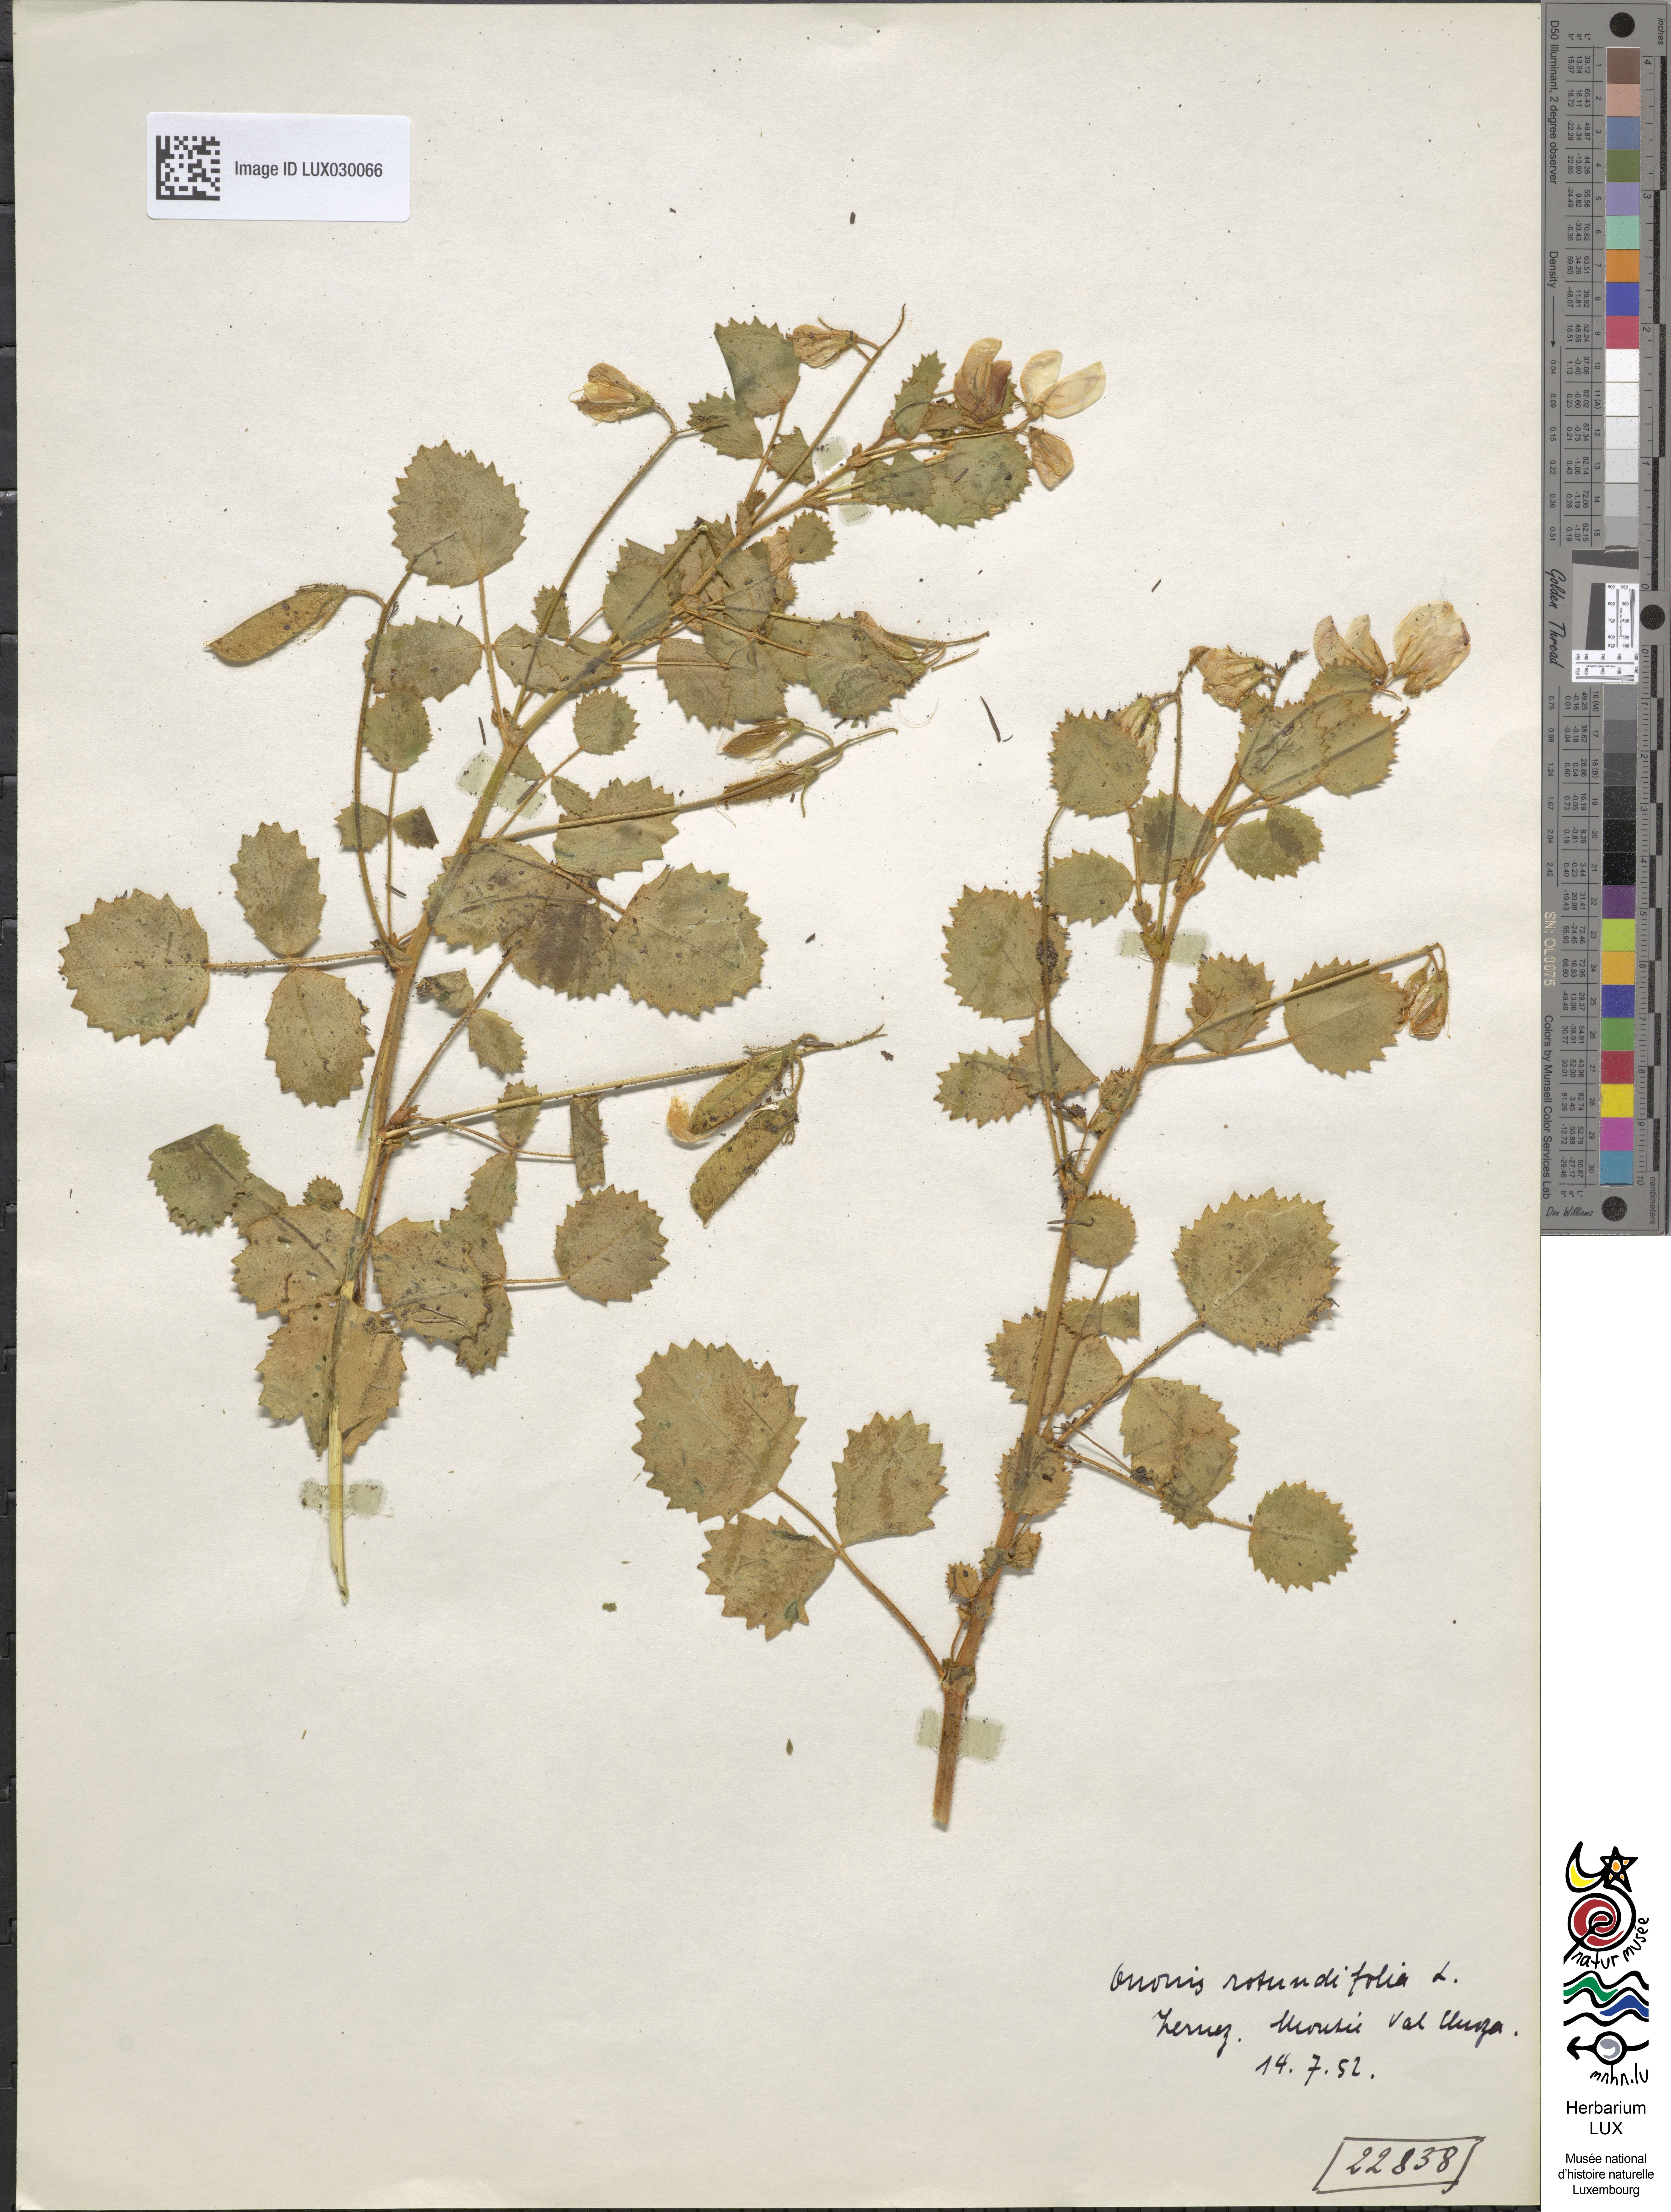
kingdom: Plantae
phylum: Tracheophyta
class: Magnoliopsida
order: Fabales
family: Fabaceae
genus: Ononis
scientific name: Ononis rotundifolia
